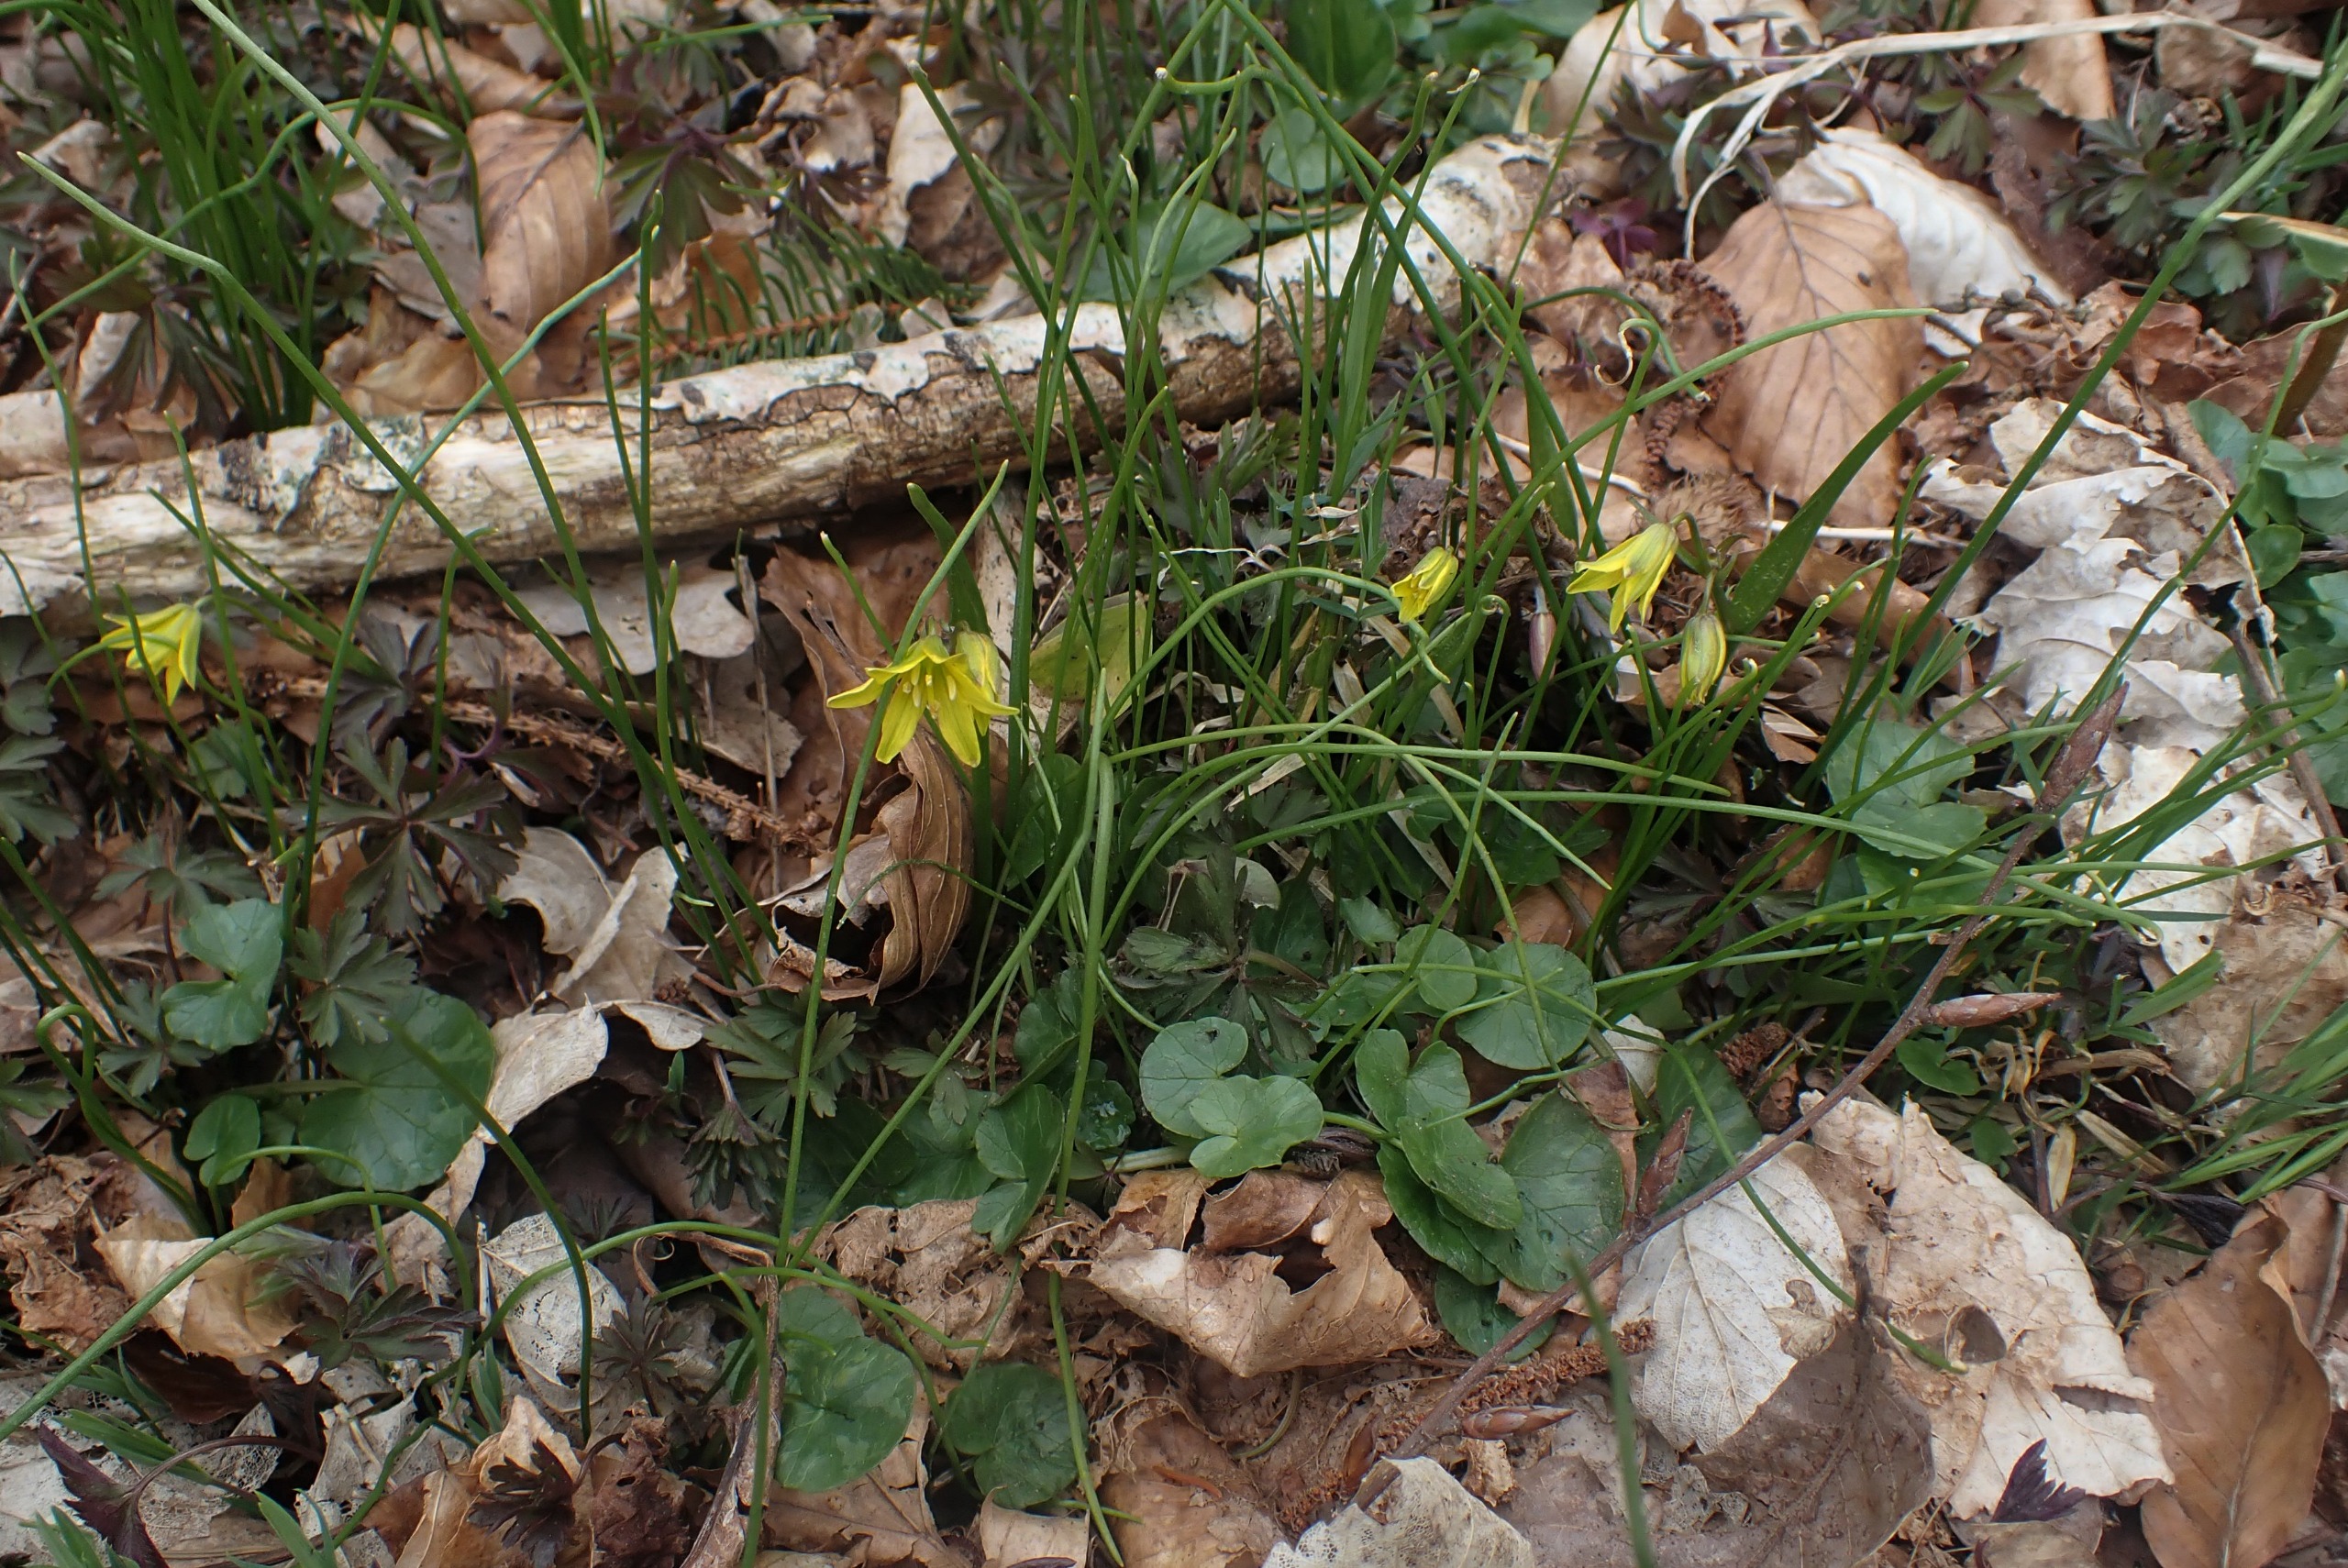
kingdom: Plantae
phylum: Tracheophyta
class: Liliopsida
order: Liliales
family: Liliaceae
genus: Gagea
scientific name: Gagea spathacea
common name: Hylster-guldstjerne
